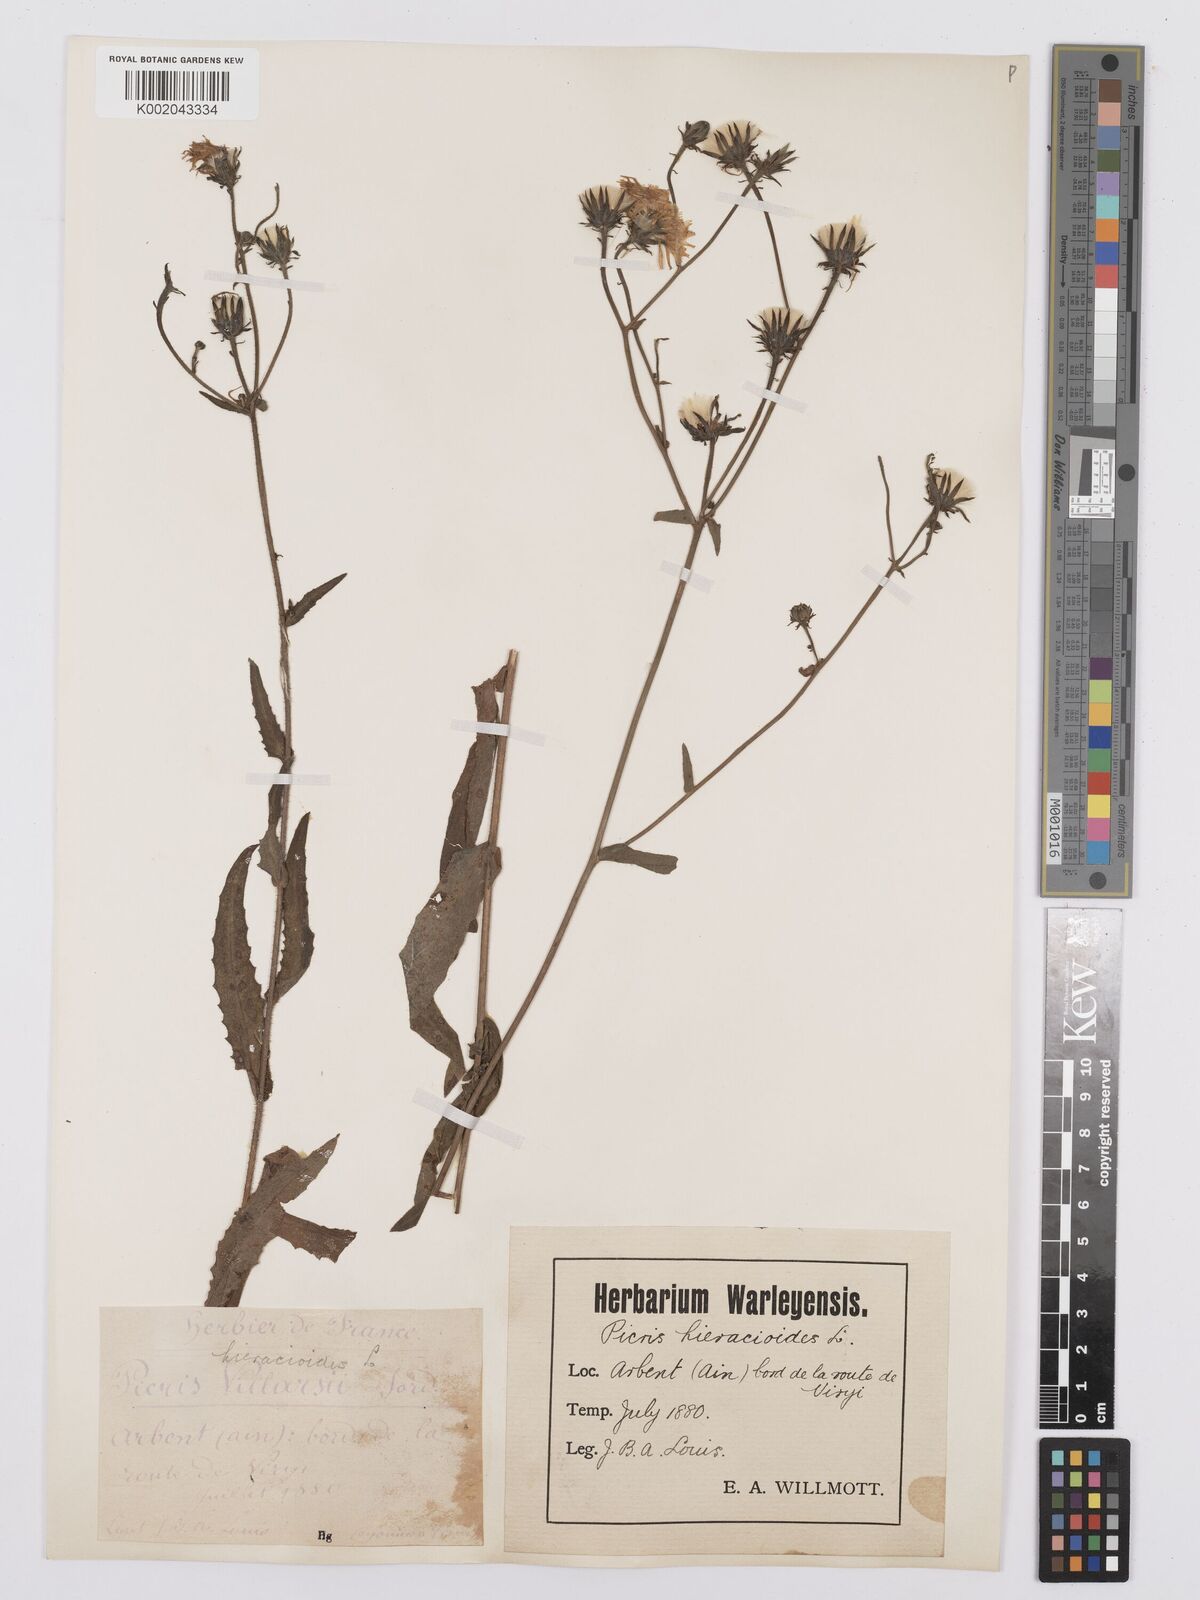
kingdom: Plantae
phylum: Tracheophyta
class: Magnoliopsida
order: Asterales
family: Asteraceae
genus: Picris
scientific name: Picris hieracioides
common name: Hawkweed oxtongue
